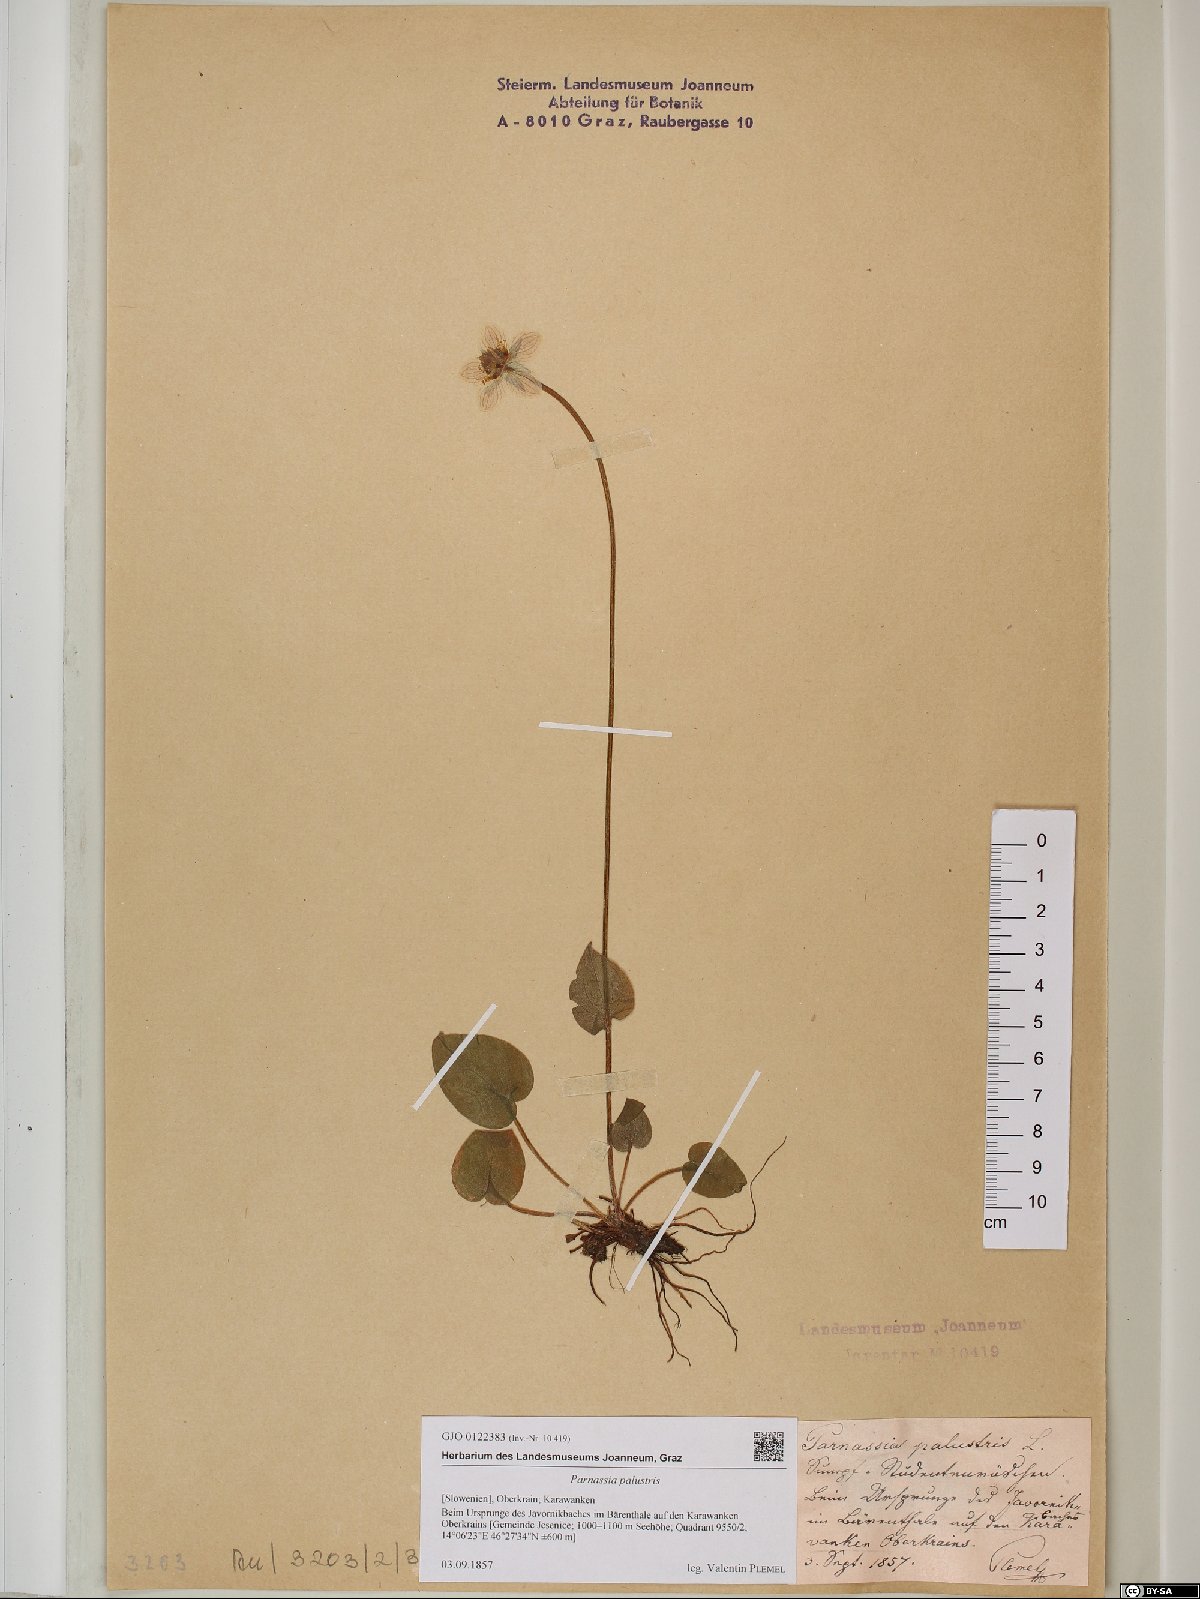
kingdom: Plantae
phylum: Tracheophyta
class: Magnoliopsida
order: Celastrales
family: Parnassiaceae
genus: Parnassia
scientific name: Parnassia palustris
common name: Grass-of-parnassus
